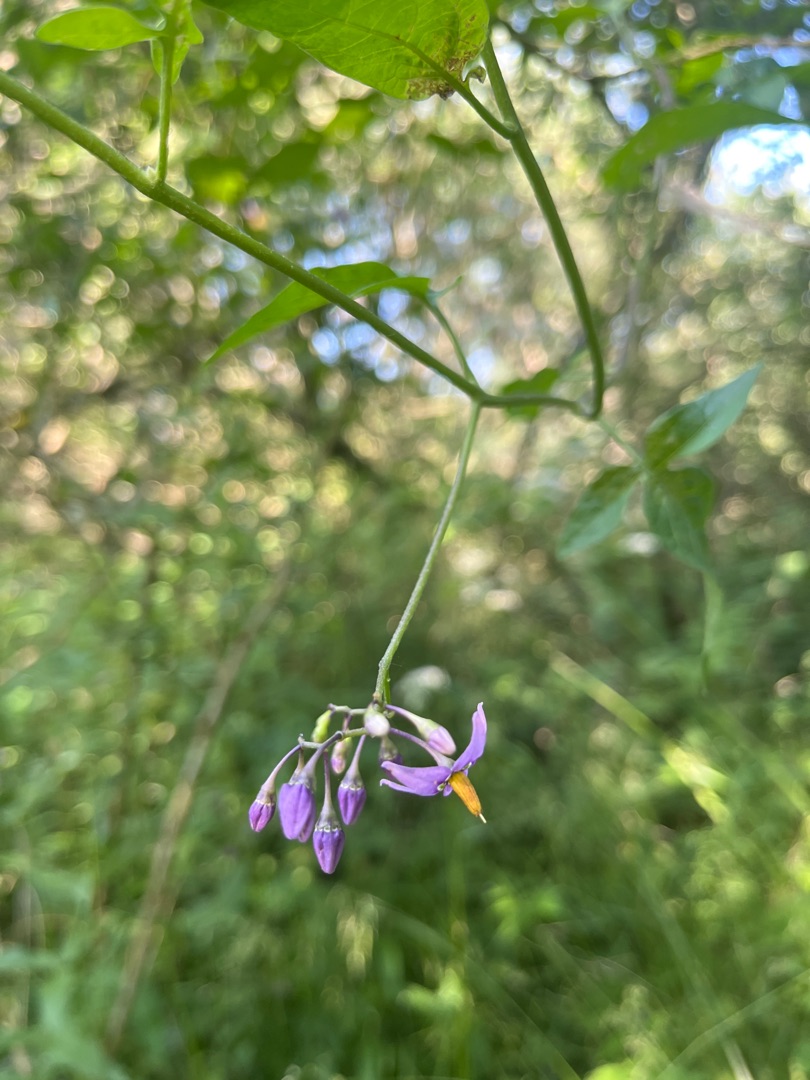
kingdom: Plantae
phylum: Tracheophyta
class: Magnoliopsida
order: Solanales
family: Solanaceae
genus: Solanum
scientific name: Solanum dulcamara
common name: Bittersød natskygge
